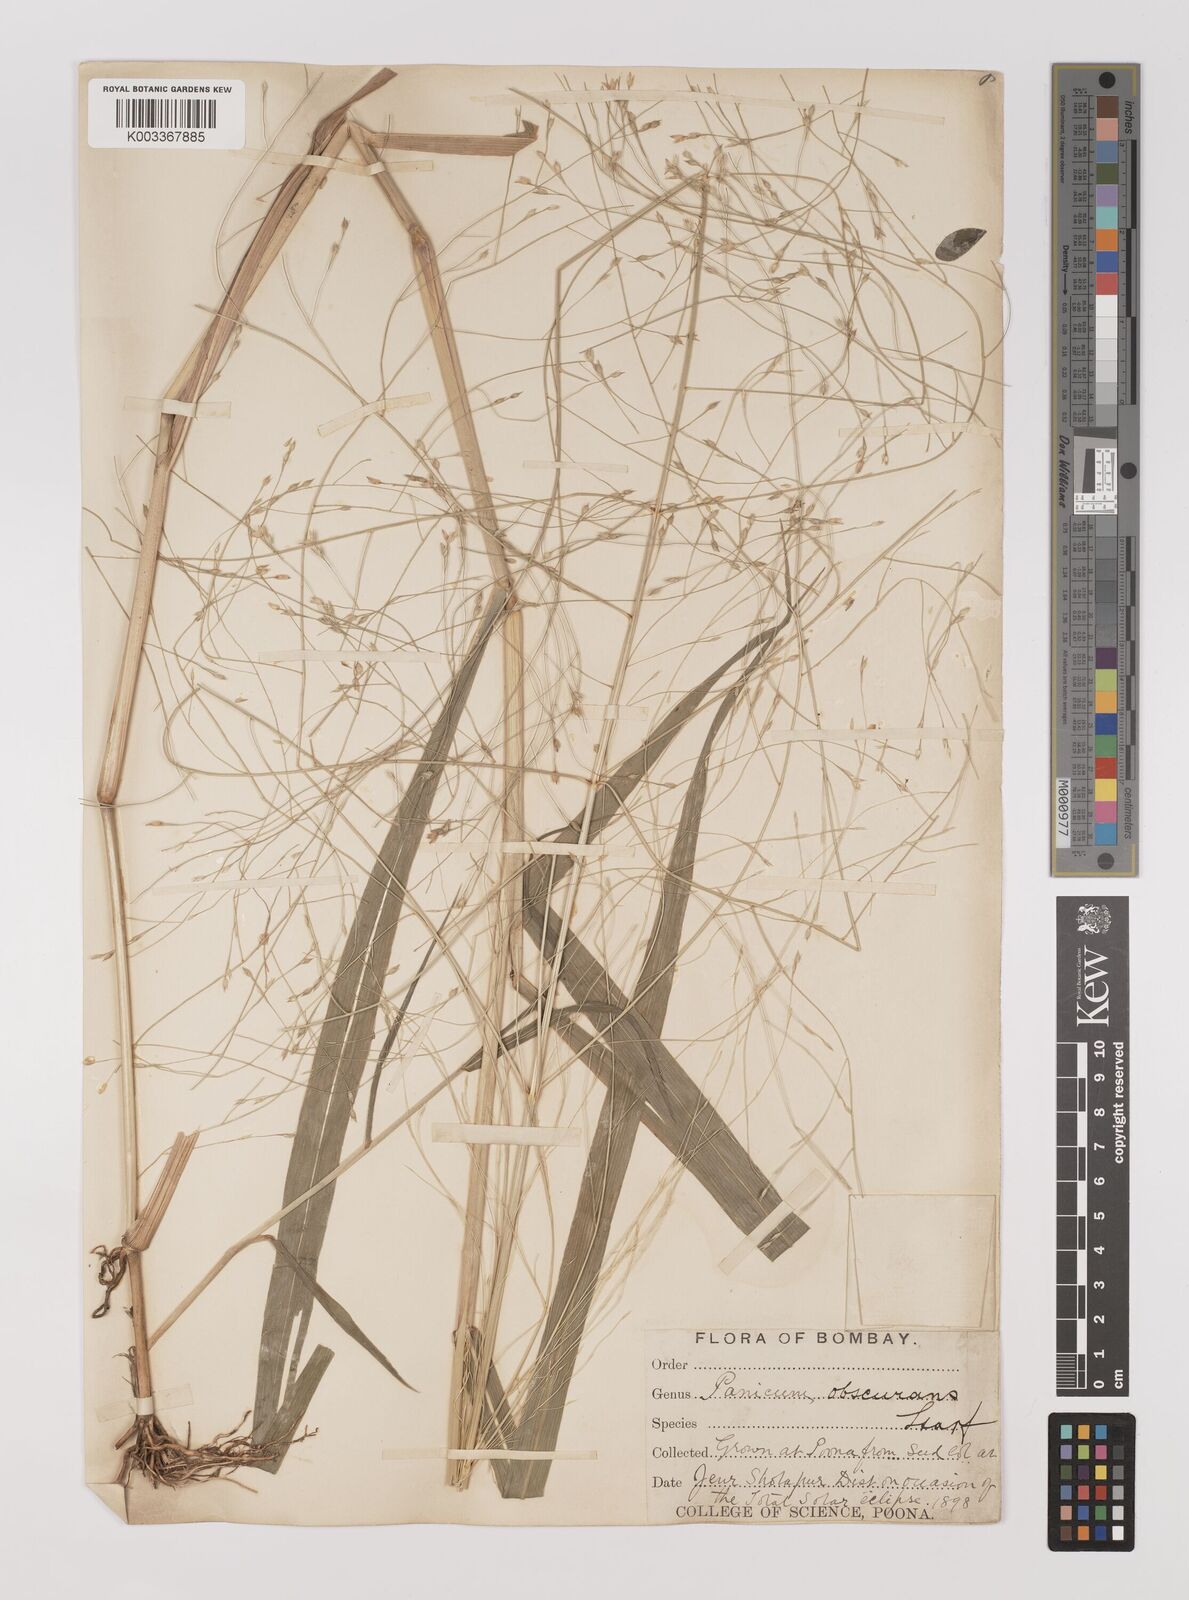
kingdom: Plantae
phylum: Tracheophyta
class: Liliopsida
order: Poales
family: Poaceae
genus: Panicum
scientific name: Panicum hippothrix
